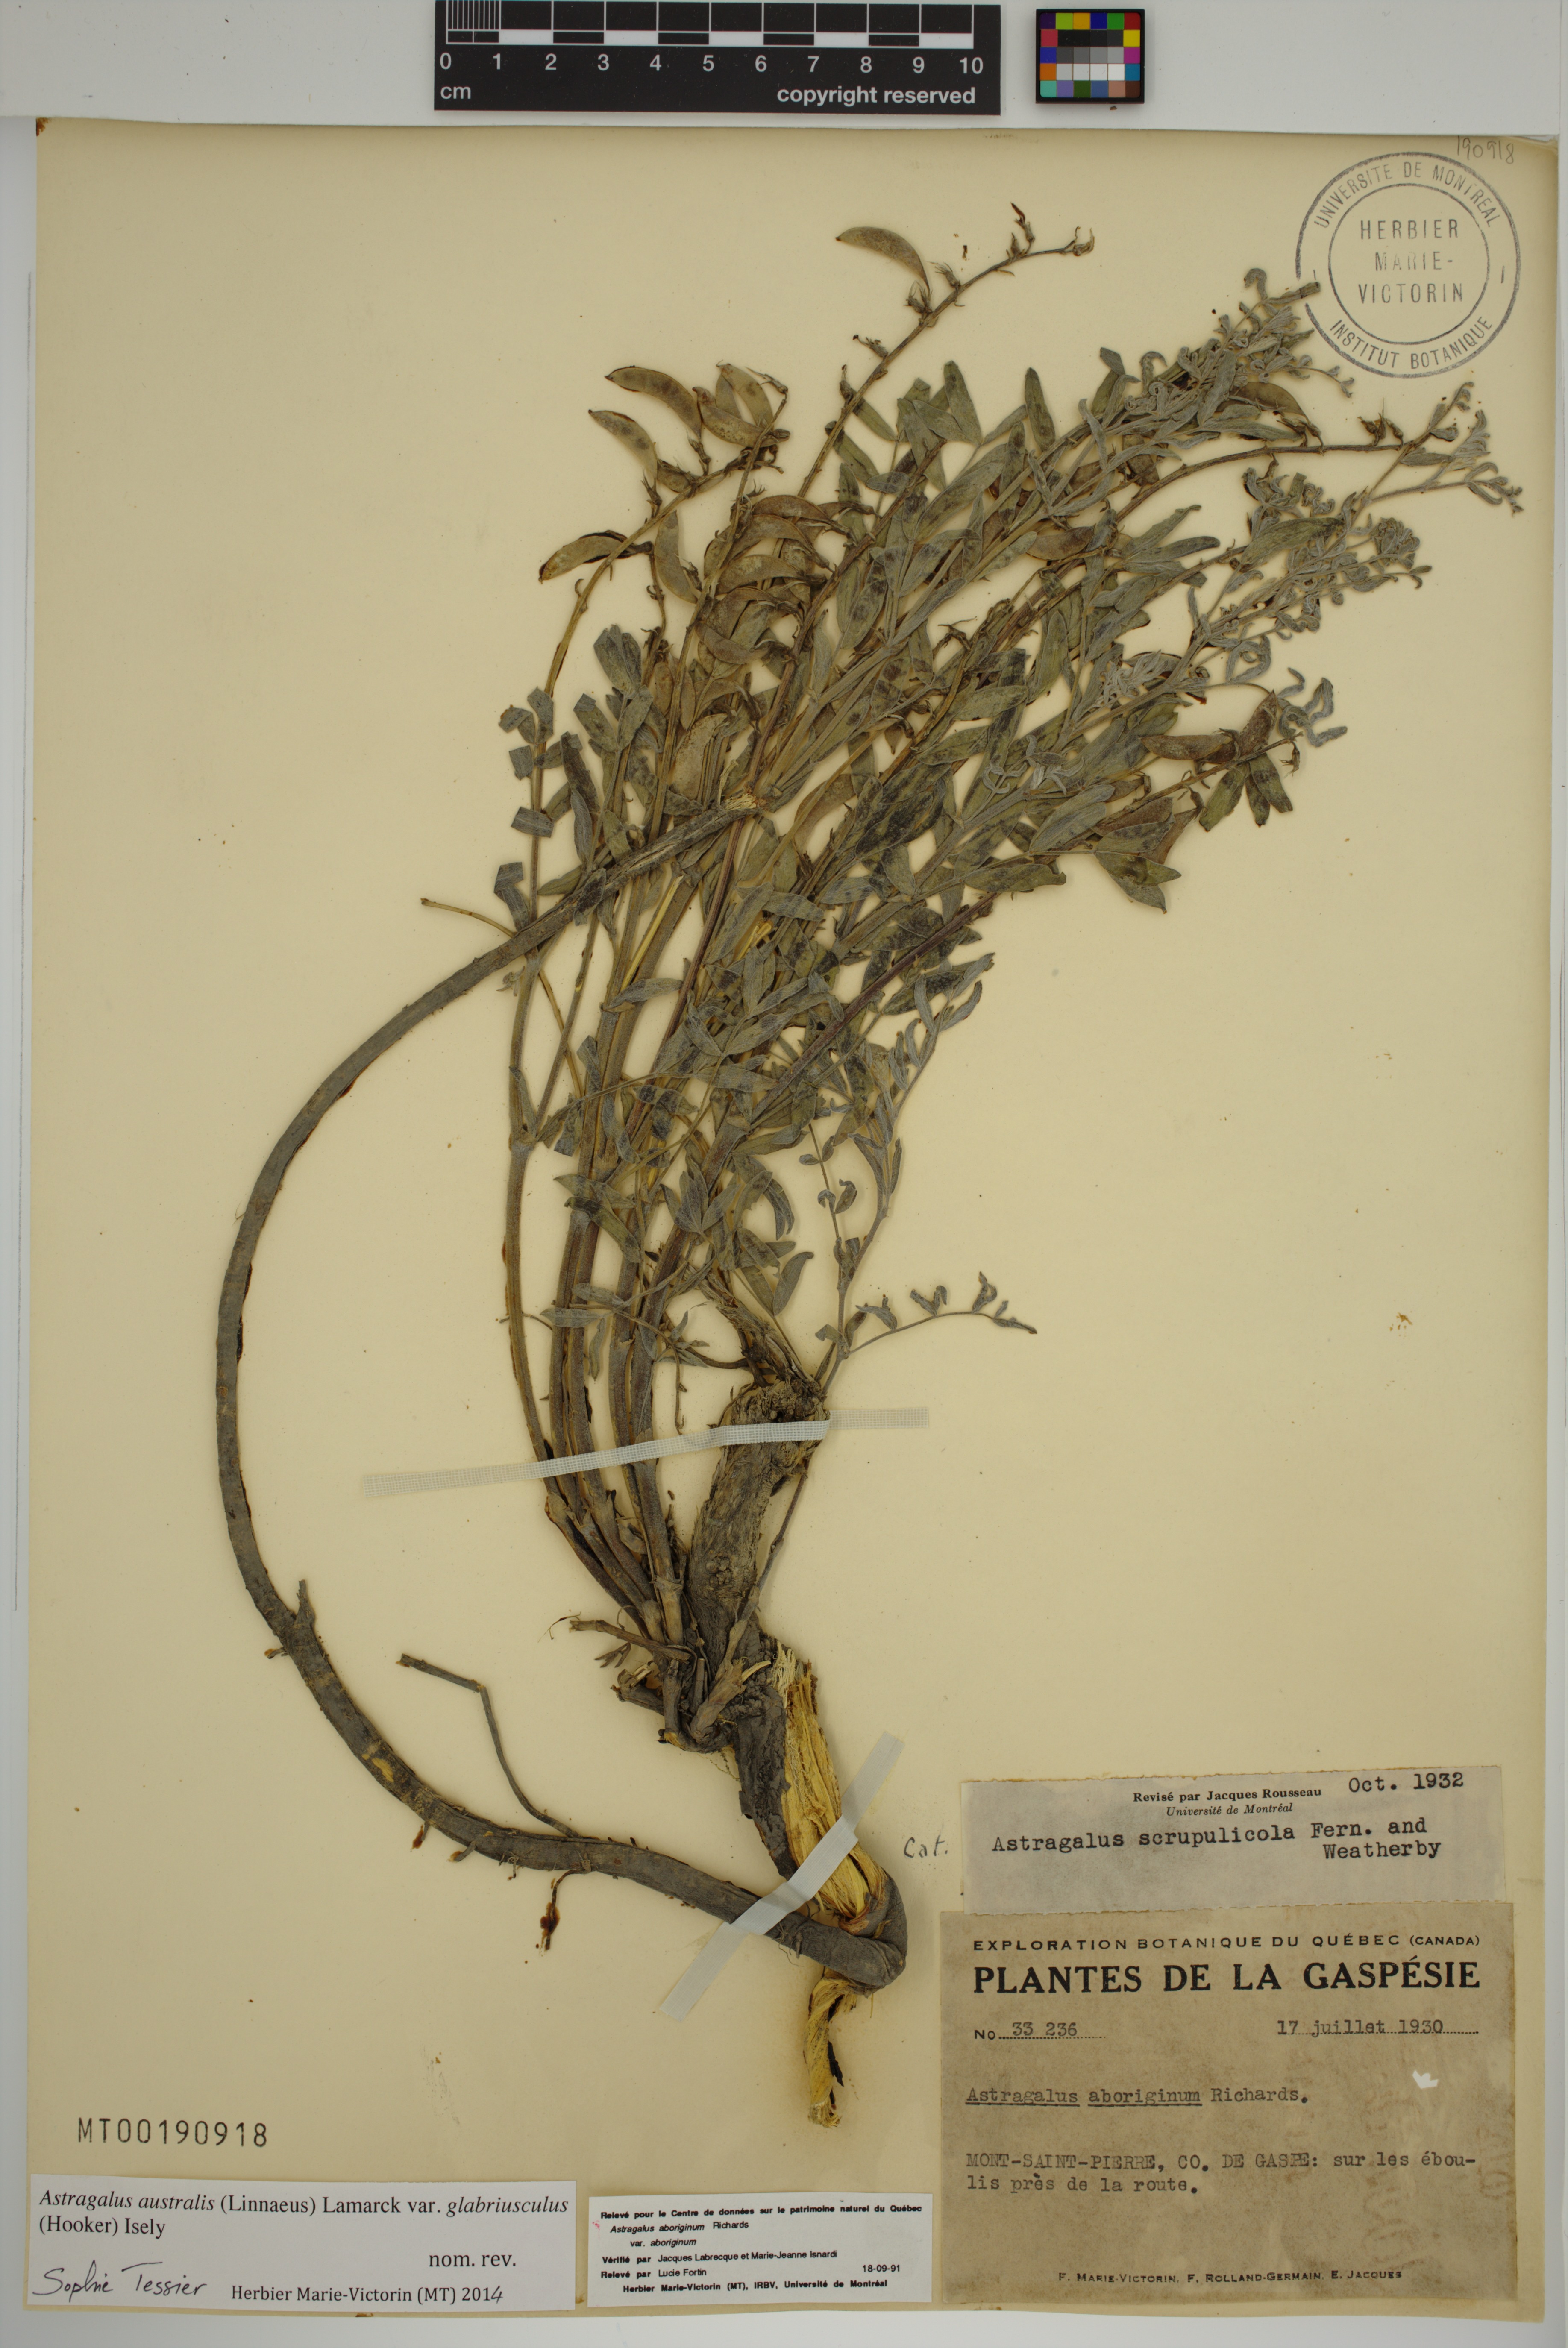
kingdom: Plantae
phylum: Tracheophyta
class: Magnoliopsida
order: Fabales
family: Fabaceae
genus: Astragalus
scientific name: Astragalus aboriginorum
